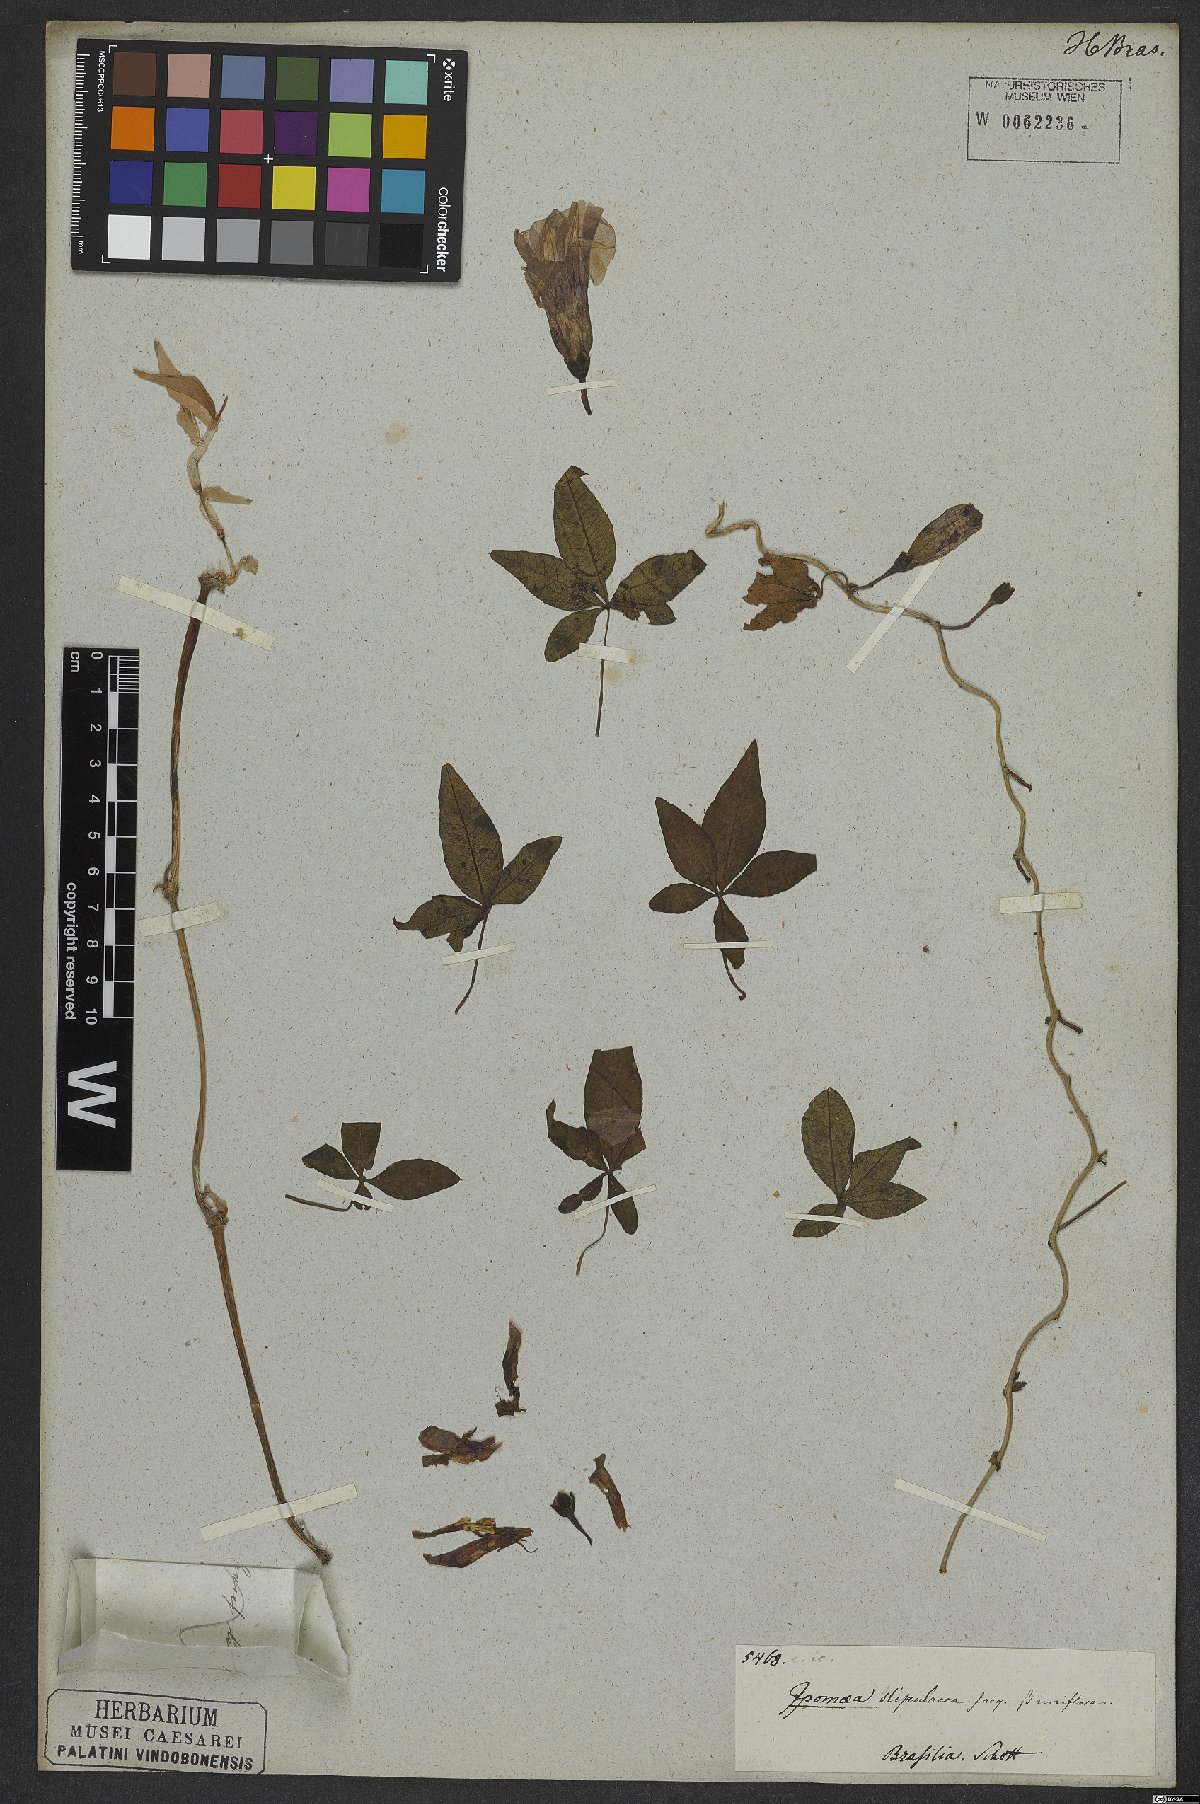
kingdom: Plantae
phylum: Tracheophyta
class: Magnoliopsida
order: Solanales
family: Convolvulaceae
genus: Ipomoea
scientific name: Ipomoea cairica
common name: Mile a minute vine
